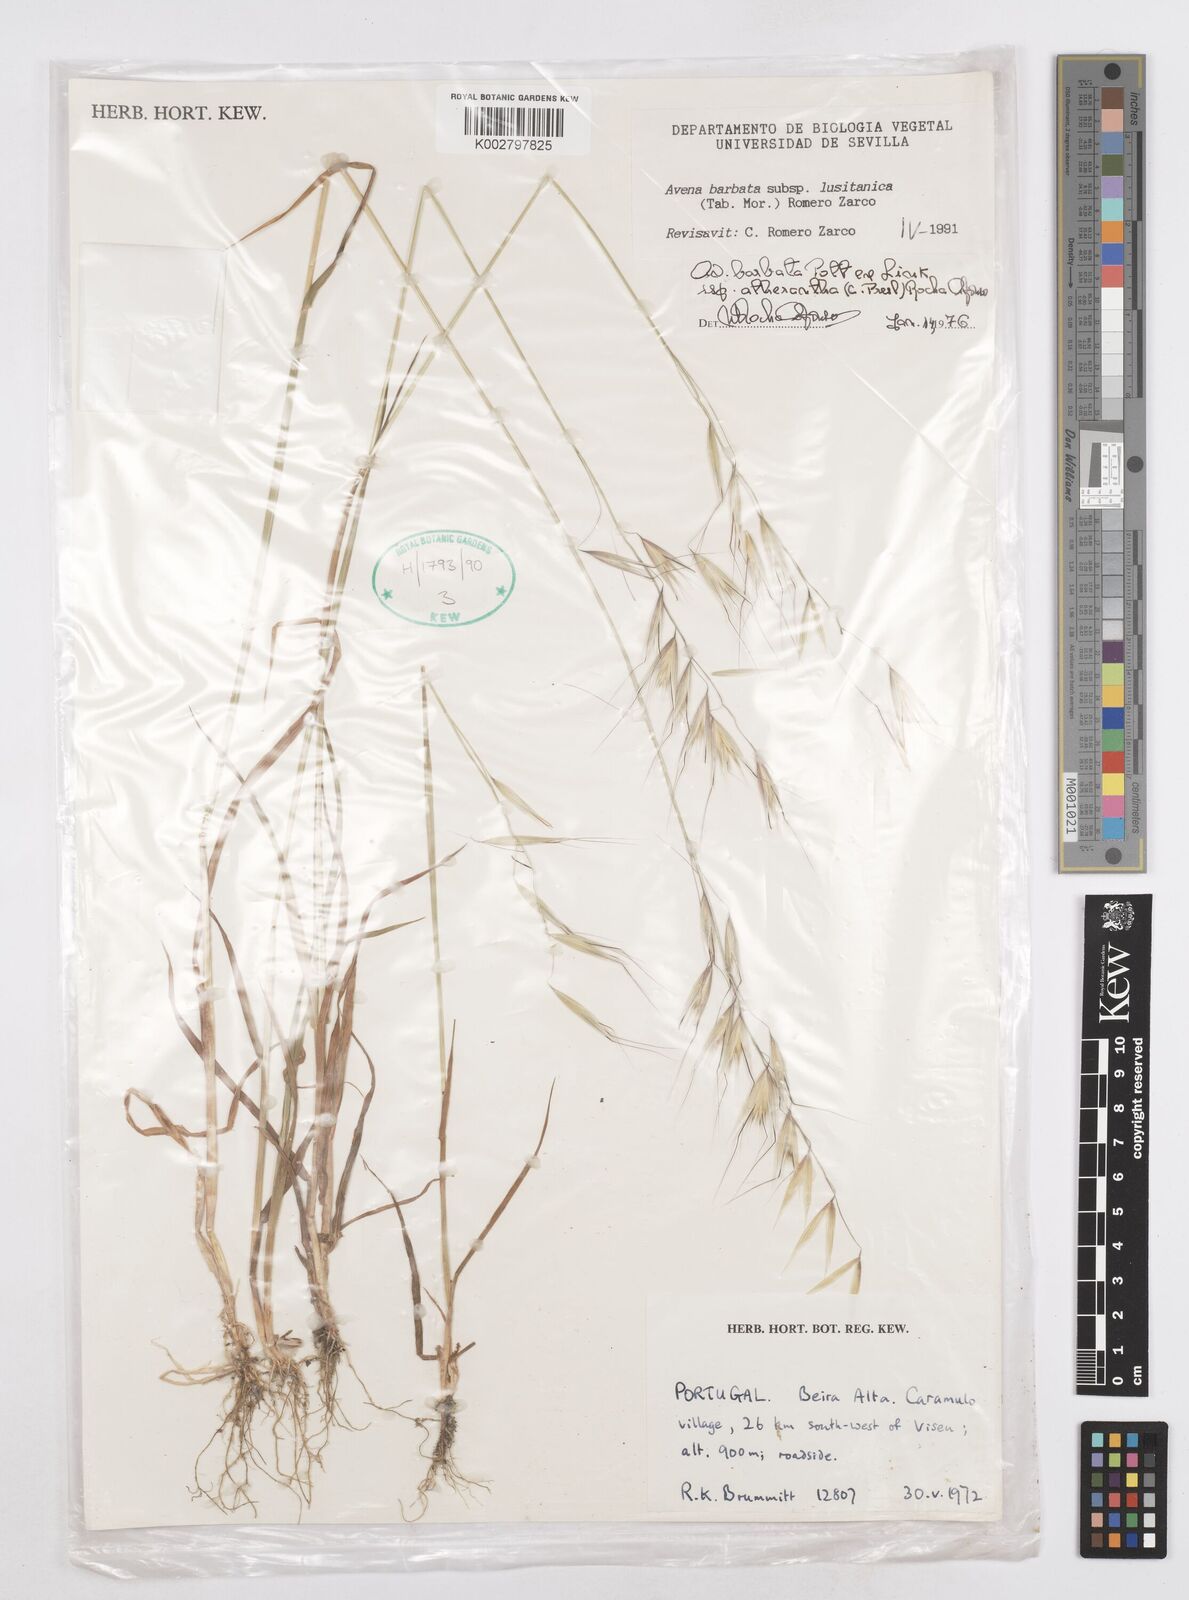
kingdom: Plantae
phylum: Tracheophyta
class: Liliopsida
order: Poales
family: Poaceae
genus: Avena
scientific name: Avena sterilis
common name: Animated oat
